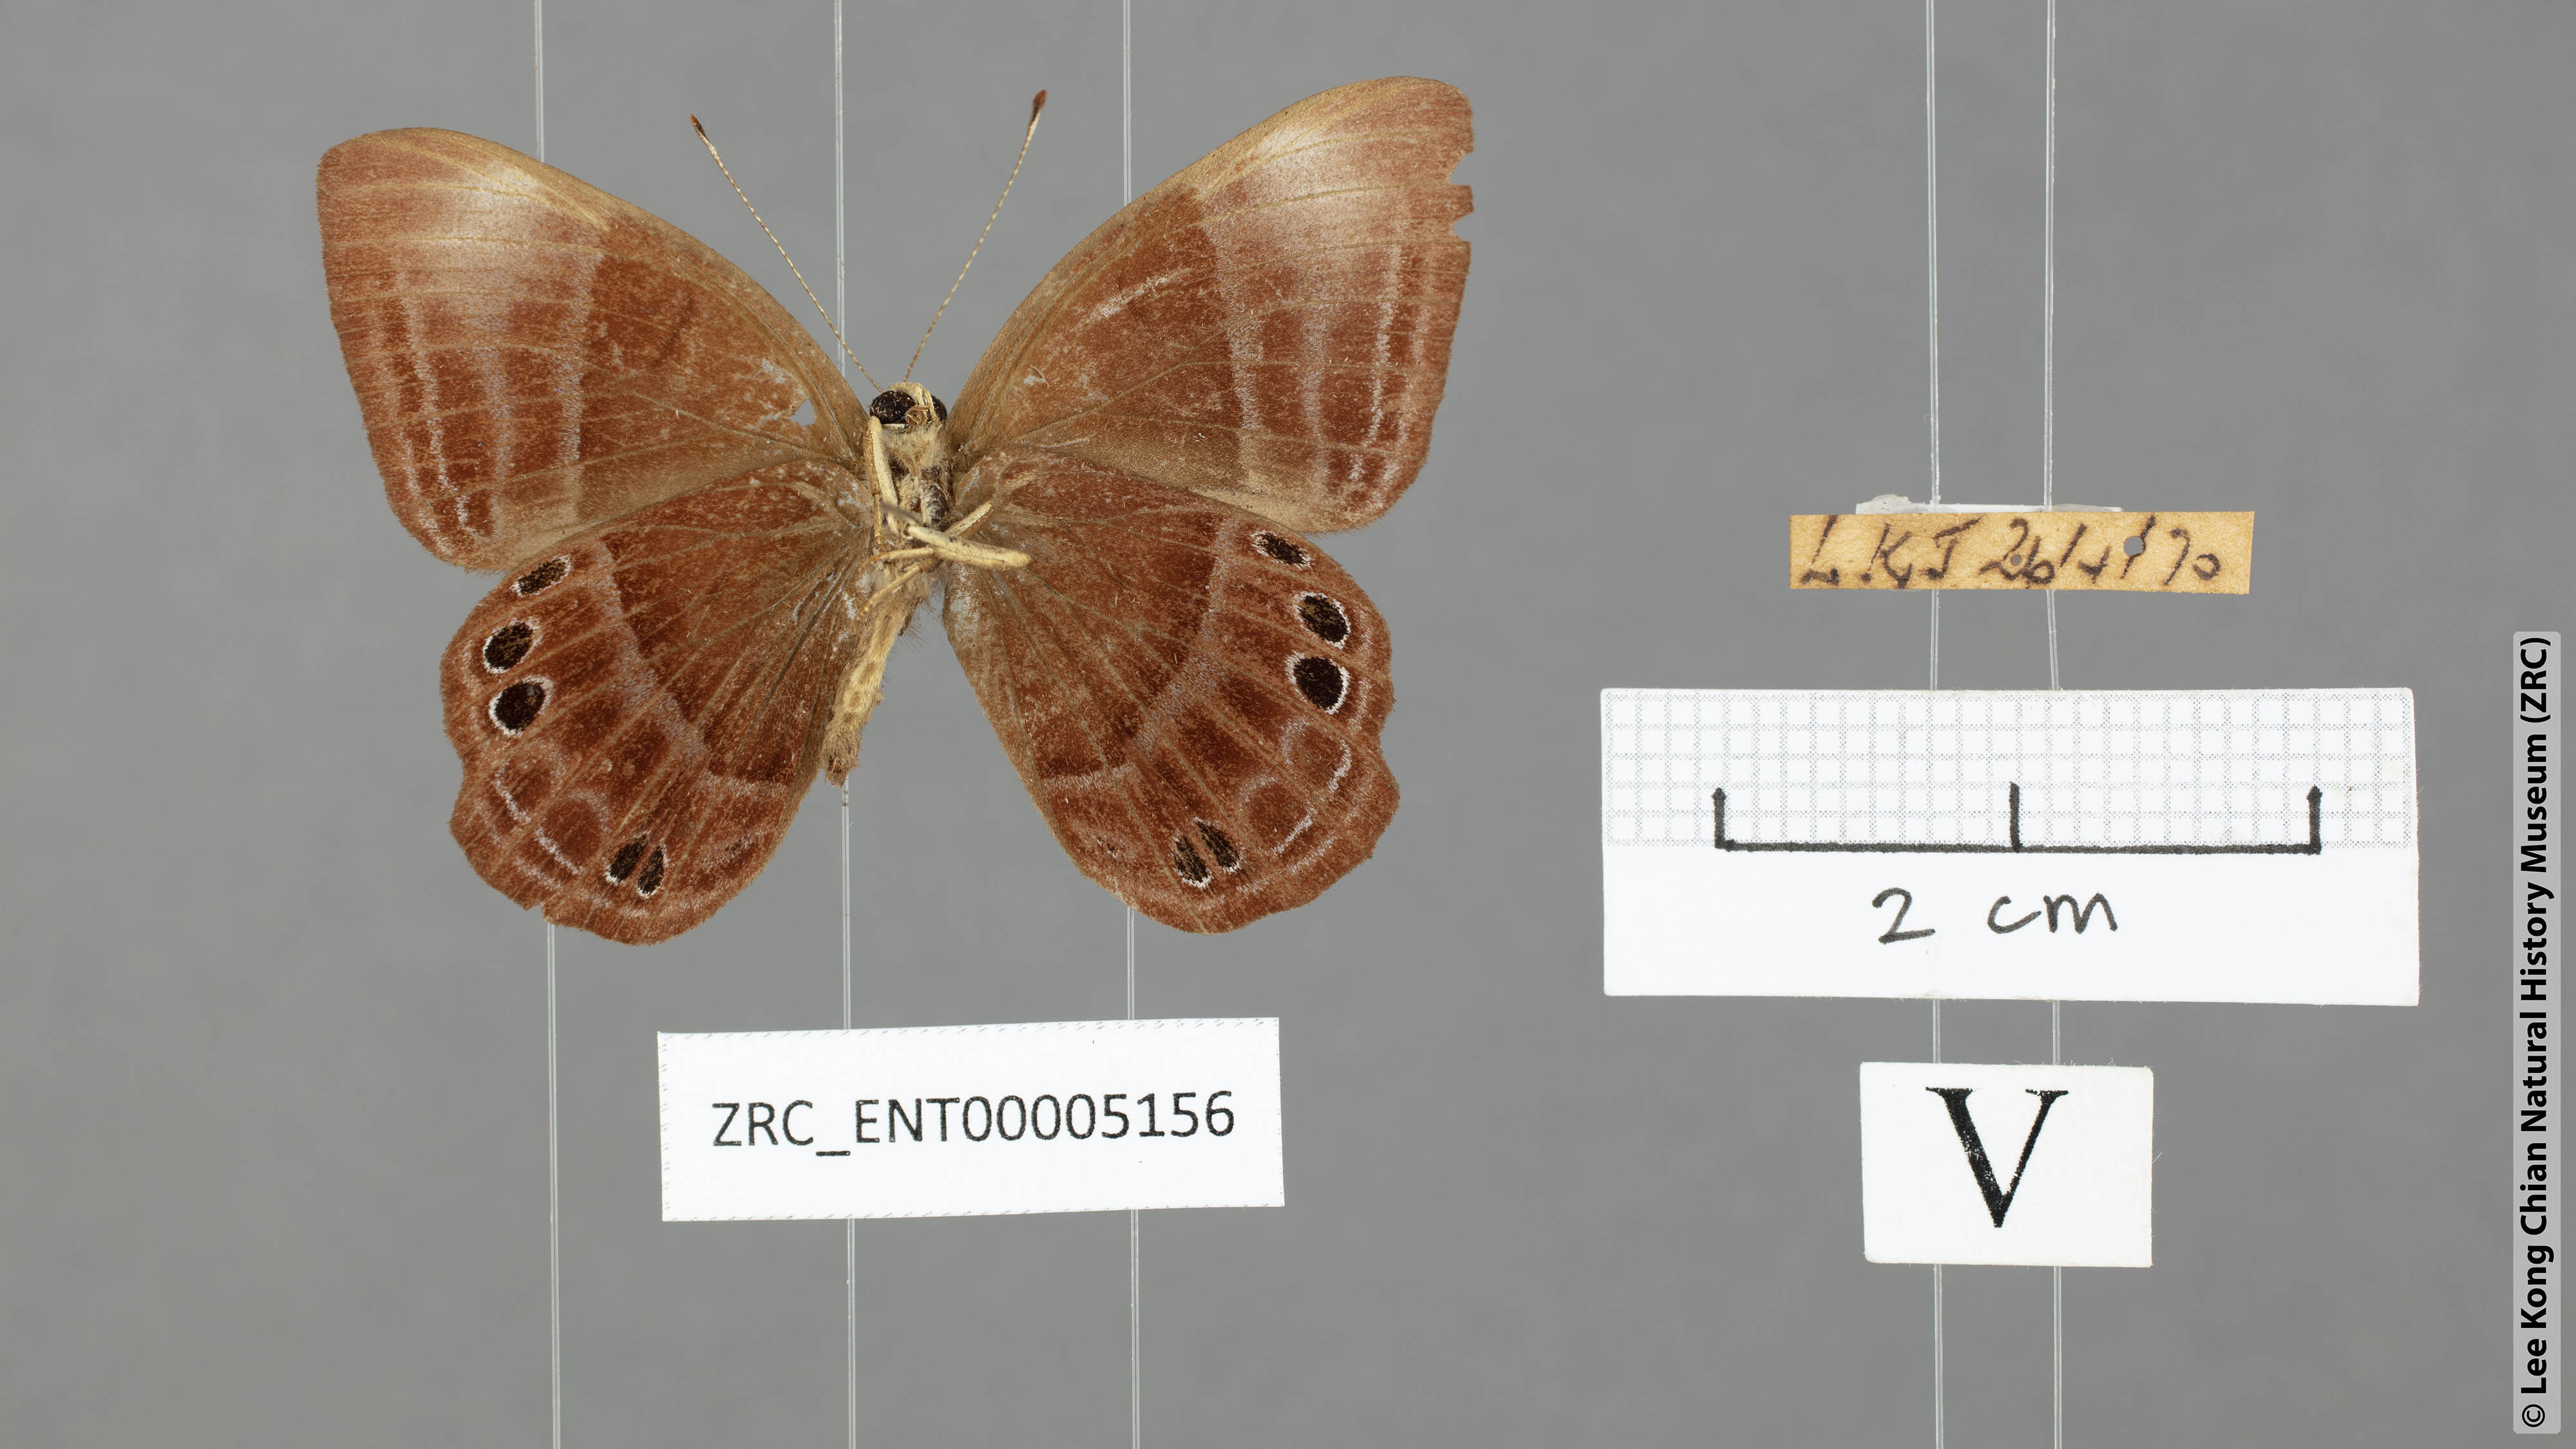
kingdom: Animalia
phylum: Arthropoda
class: Insecta
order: Lepidoptera
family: Lycaenidae
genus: Abisara
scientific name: Abisara geza
